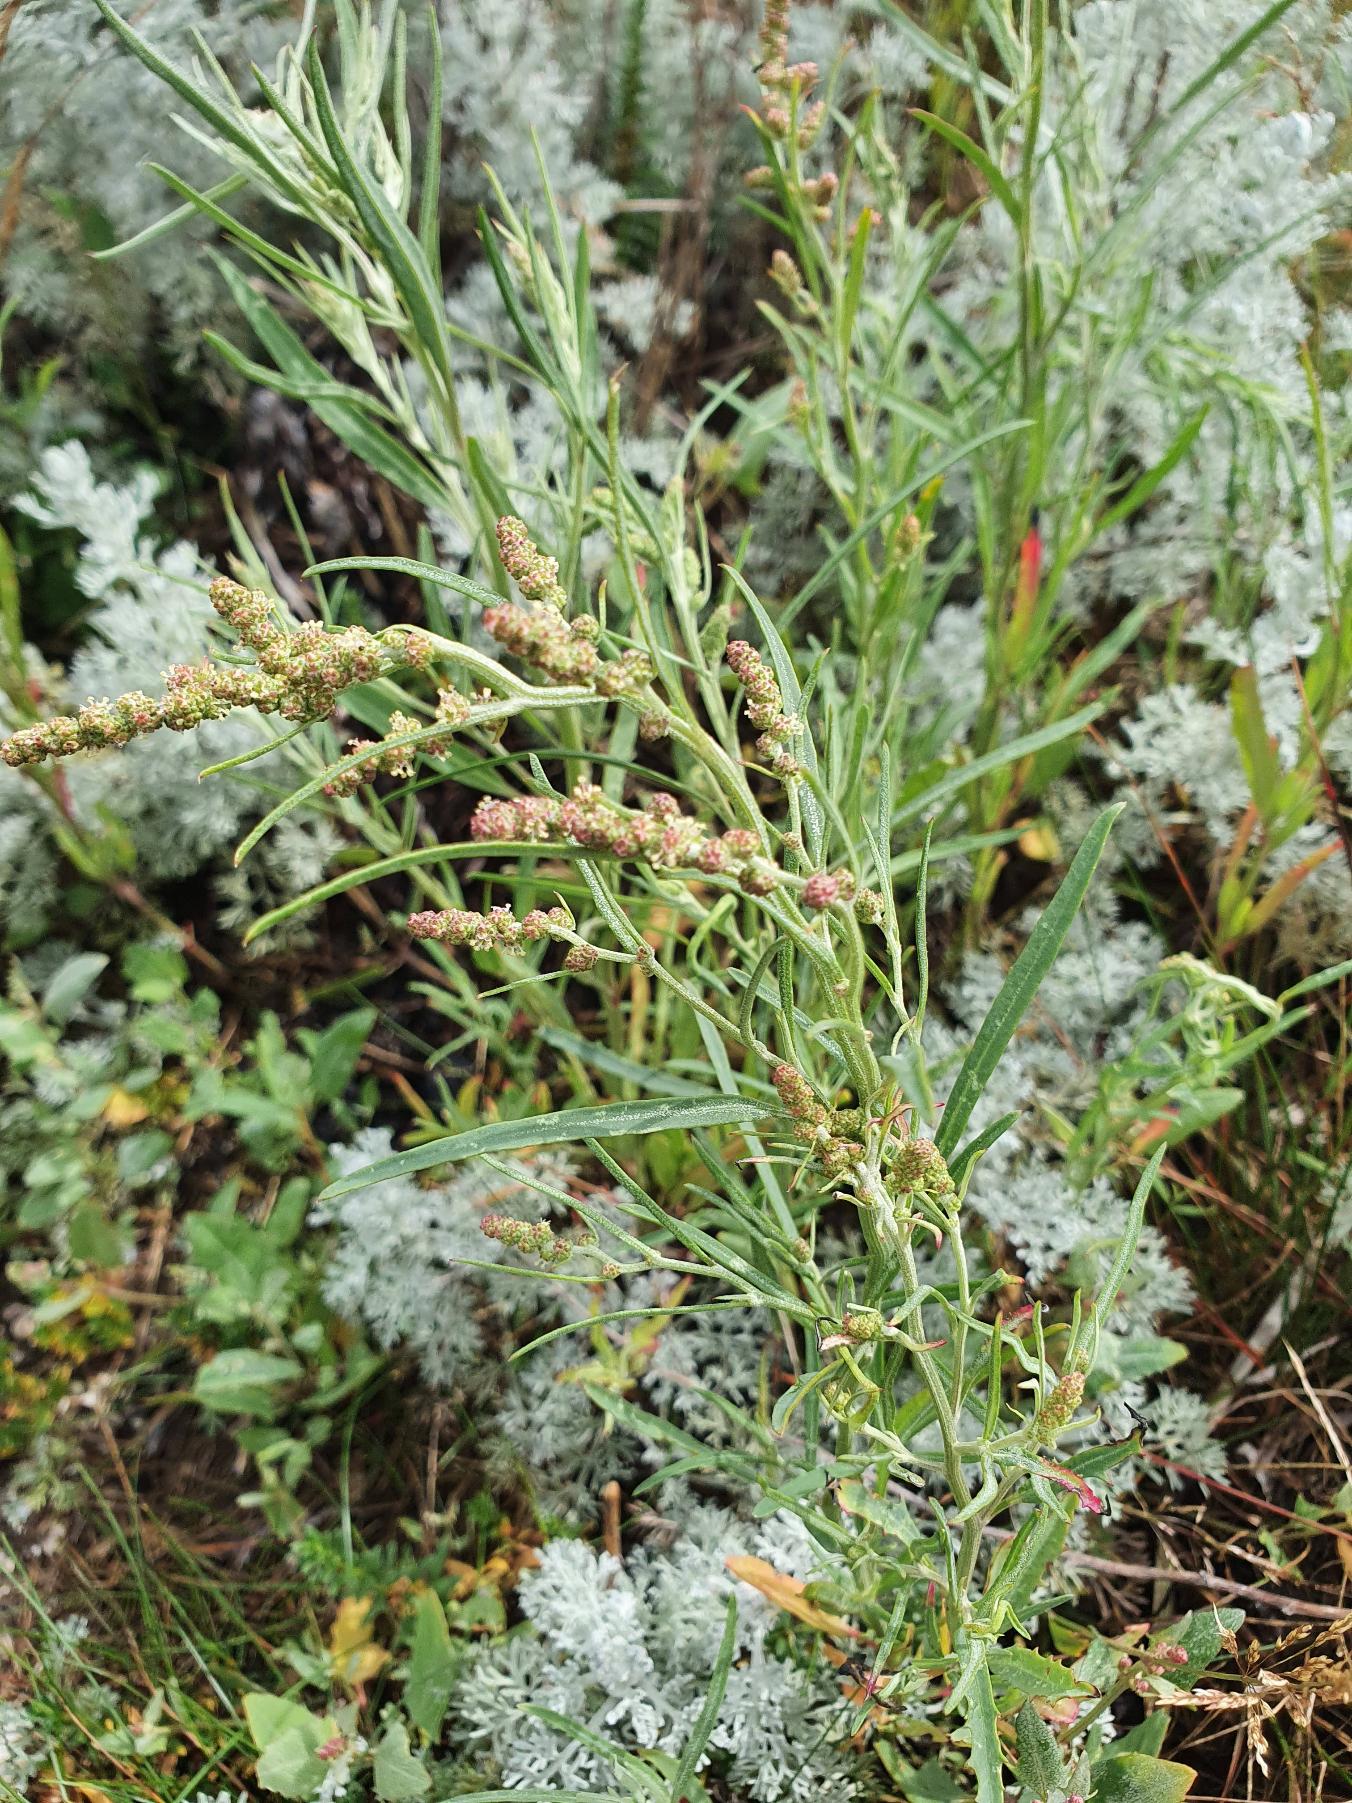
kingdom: Plantae
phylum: Tracheophyta
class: Magnoliopsida
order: Caryophyllales
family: Amaranthaceae
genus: Atriplex
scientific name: Atriplex littoralis
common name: Strand-mælde
